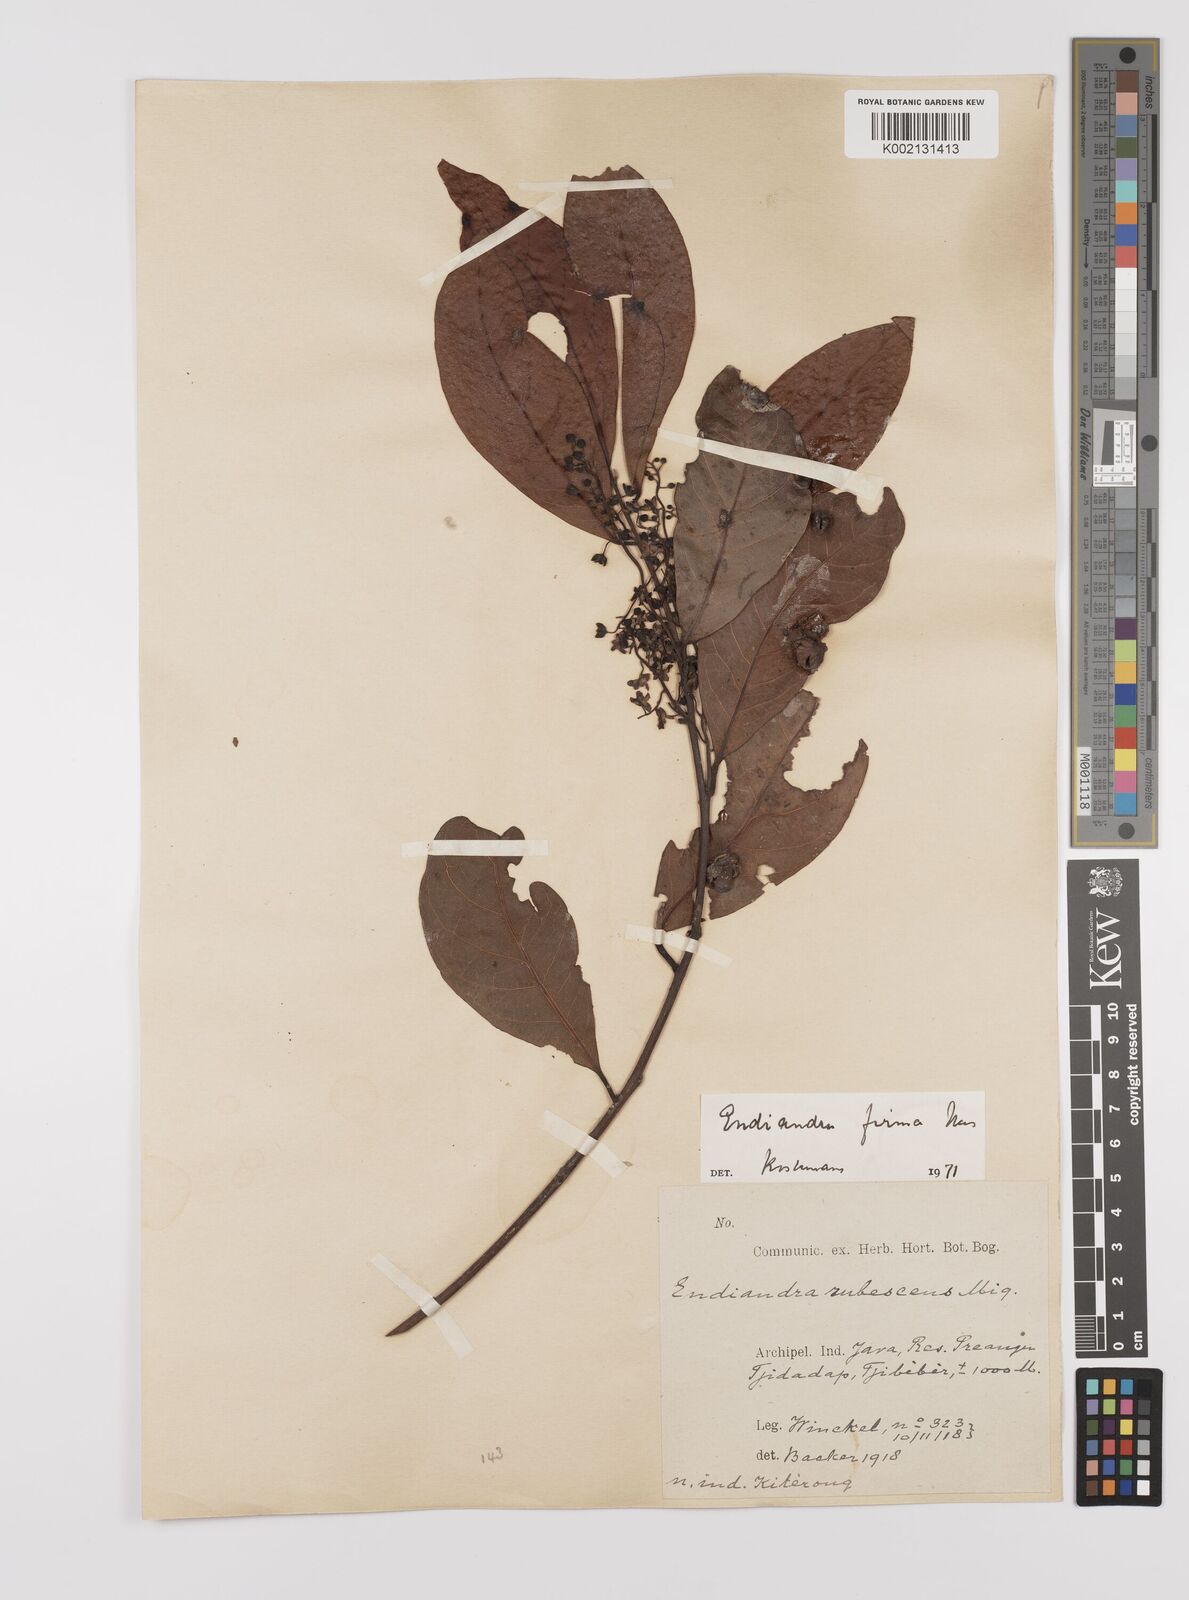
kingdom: Plantae
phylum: Tracheophyta
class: Magnoliopsida
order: Laurales
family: Lauraceae
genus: Endiandra
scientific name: Endiandra firma
